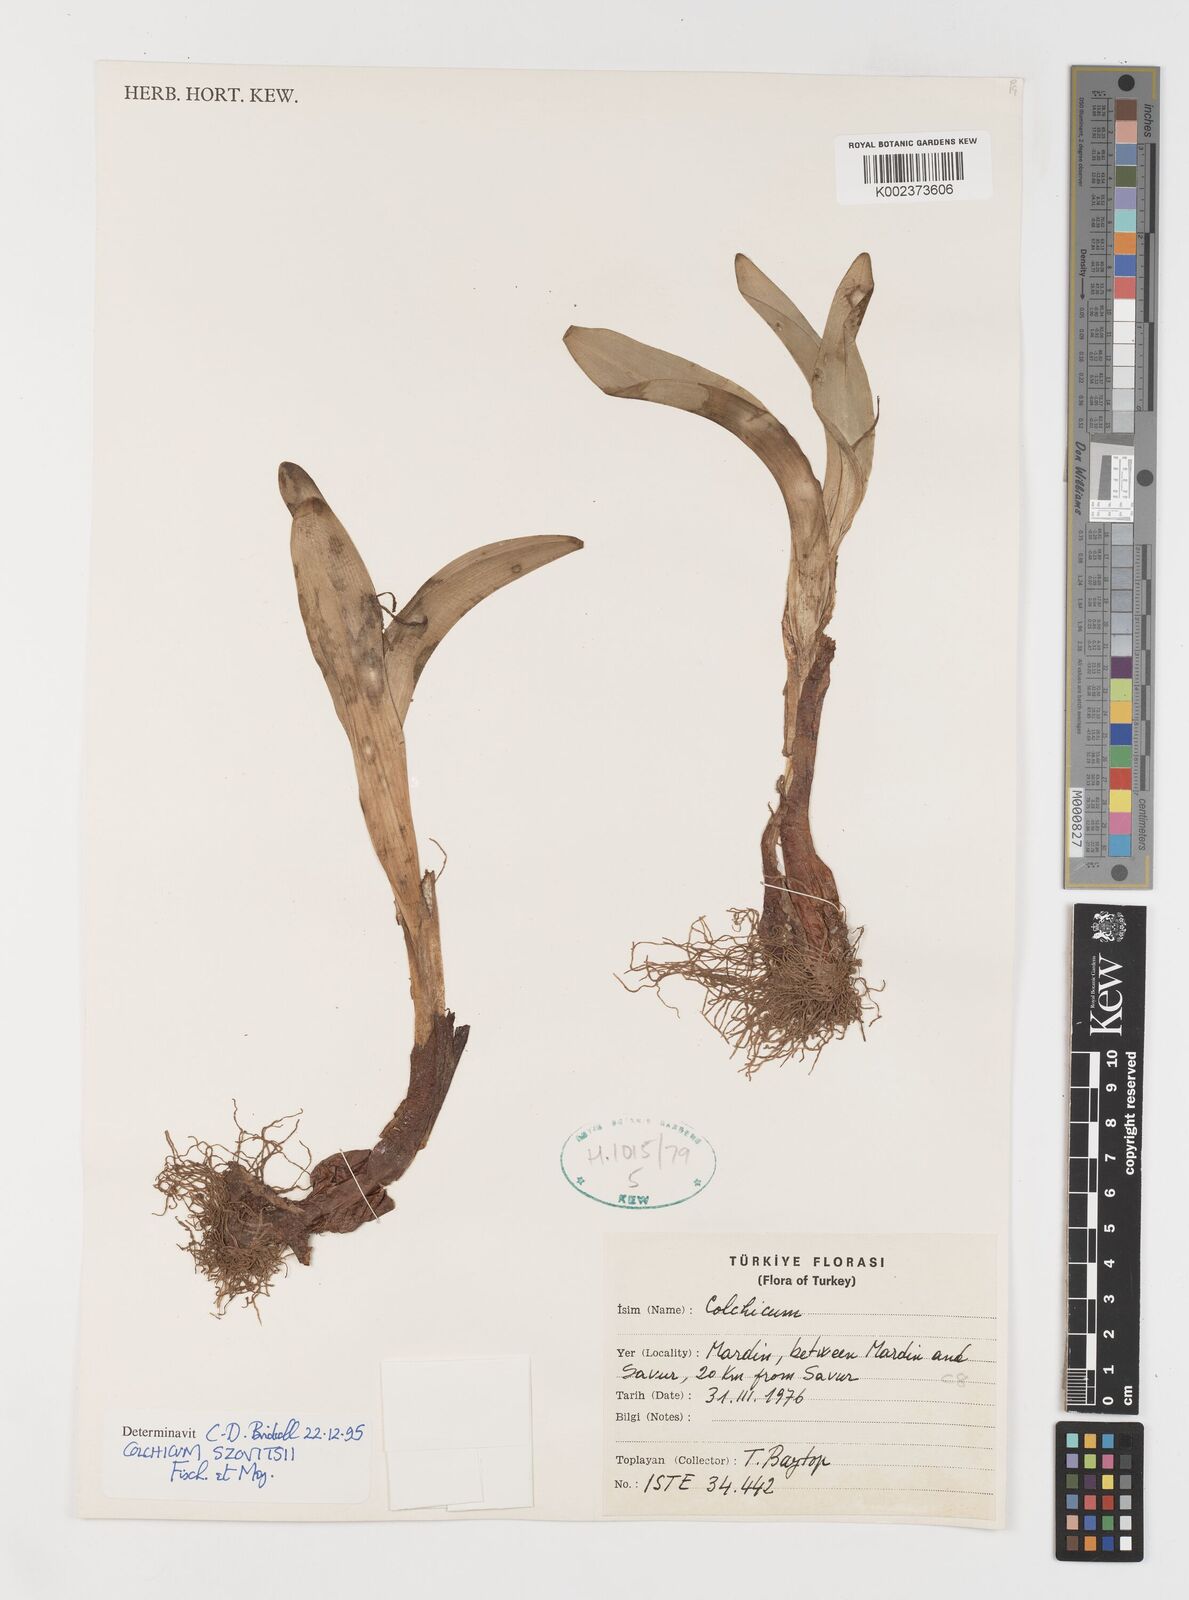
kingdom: Plantae
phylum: Tracheophyta
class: Liliopsida
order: Liliales
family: Colchicaceae
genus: Colchicum
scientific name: Colchicum szovitsii
